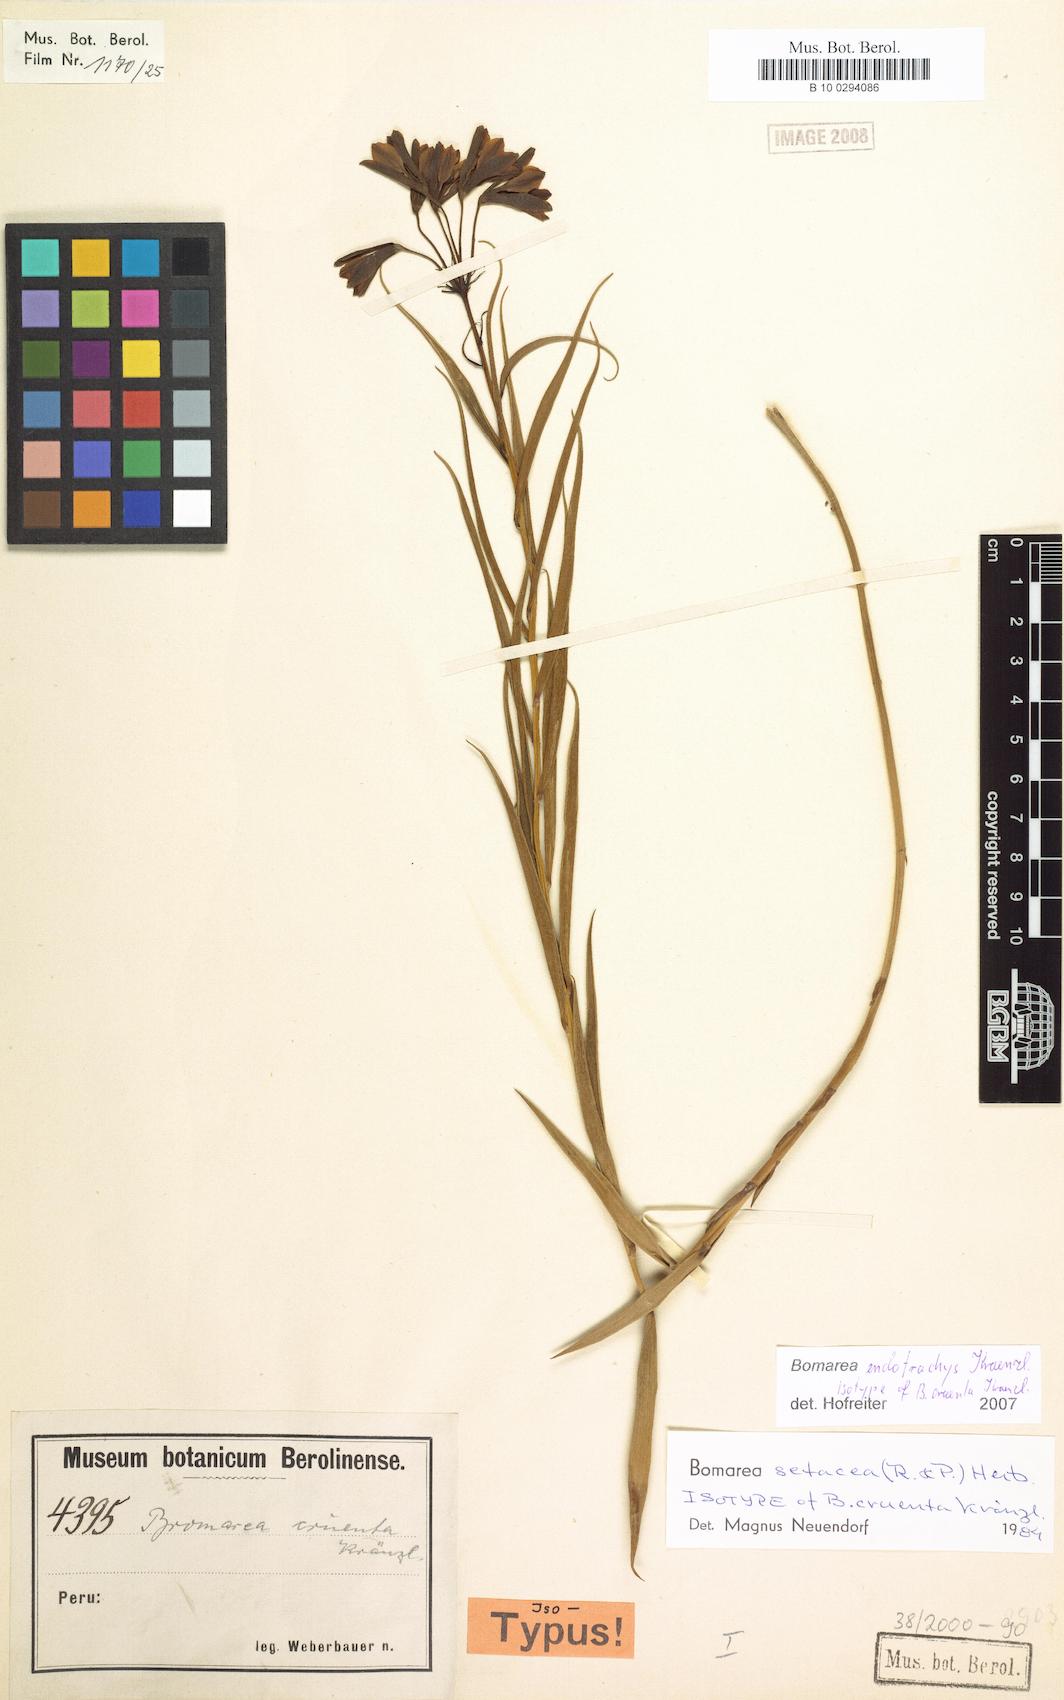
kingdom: Plantae
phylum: Tracheophyta
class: Liliopsida
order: Liliales
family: Alstroemeriaceae
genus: Bomarea
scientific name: Bomarea setacea
